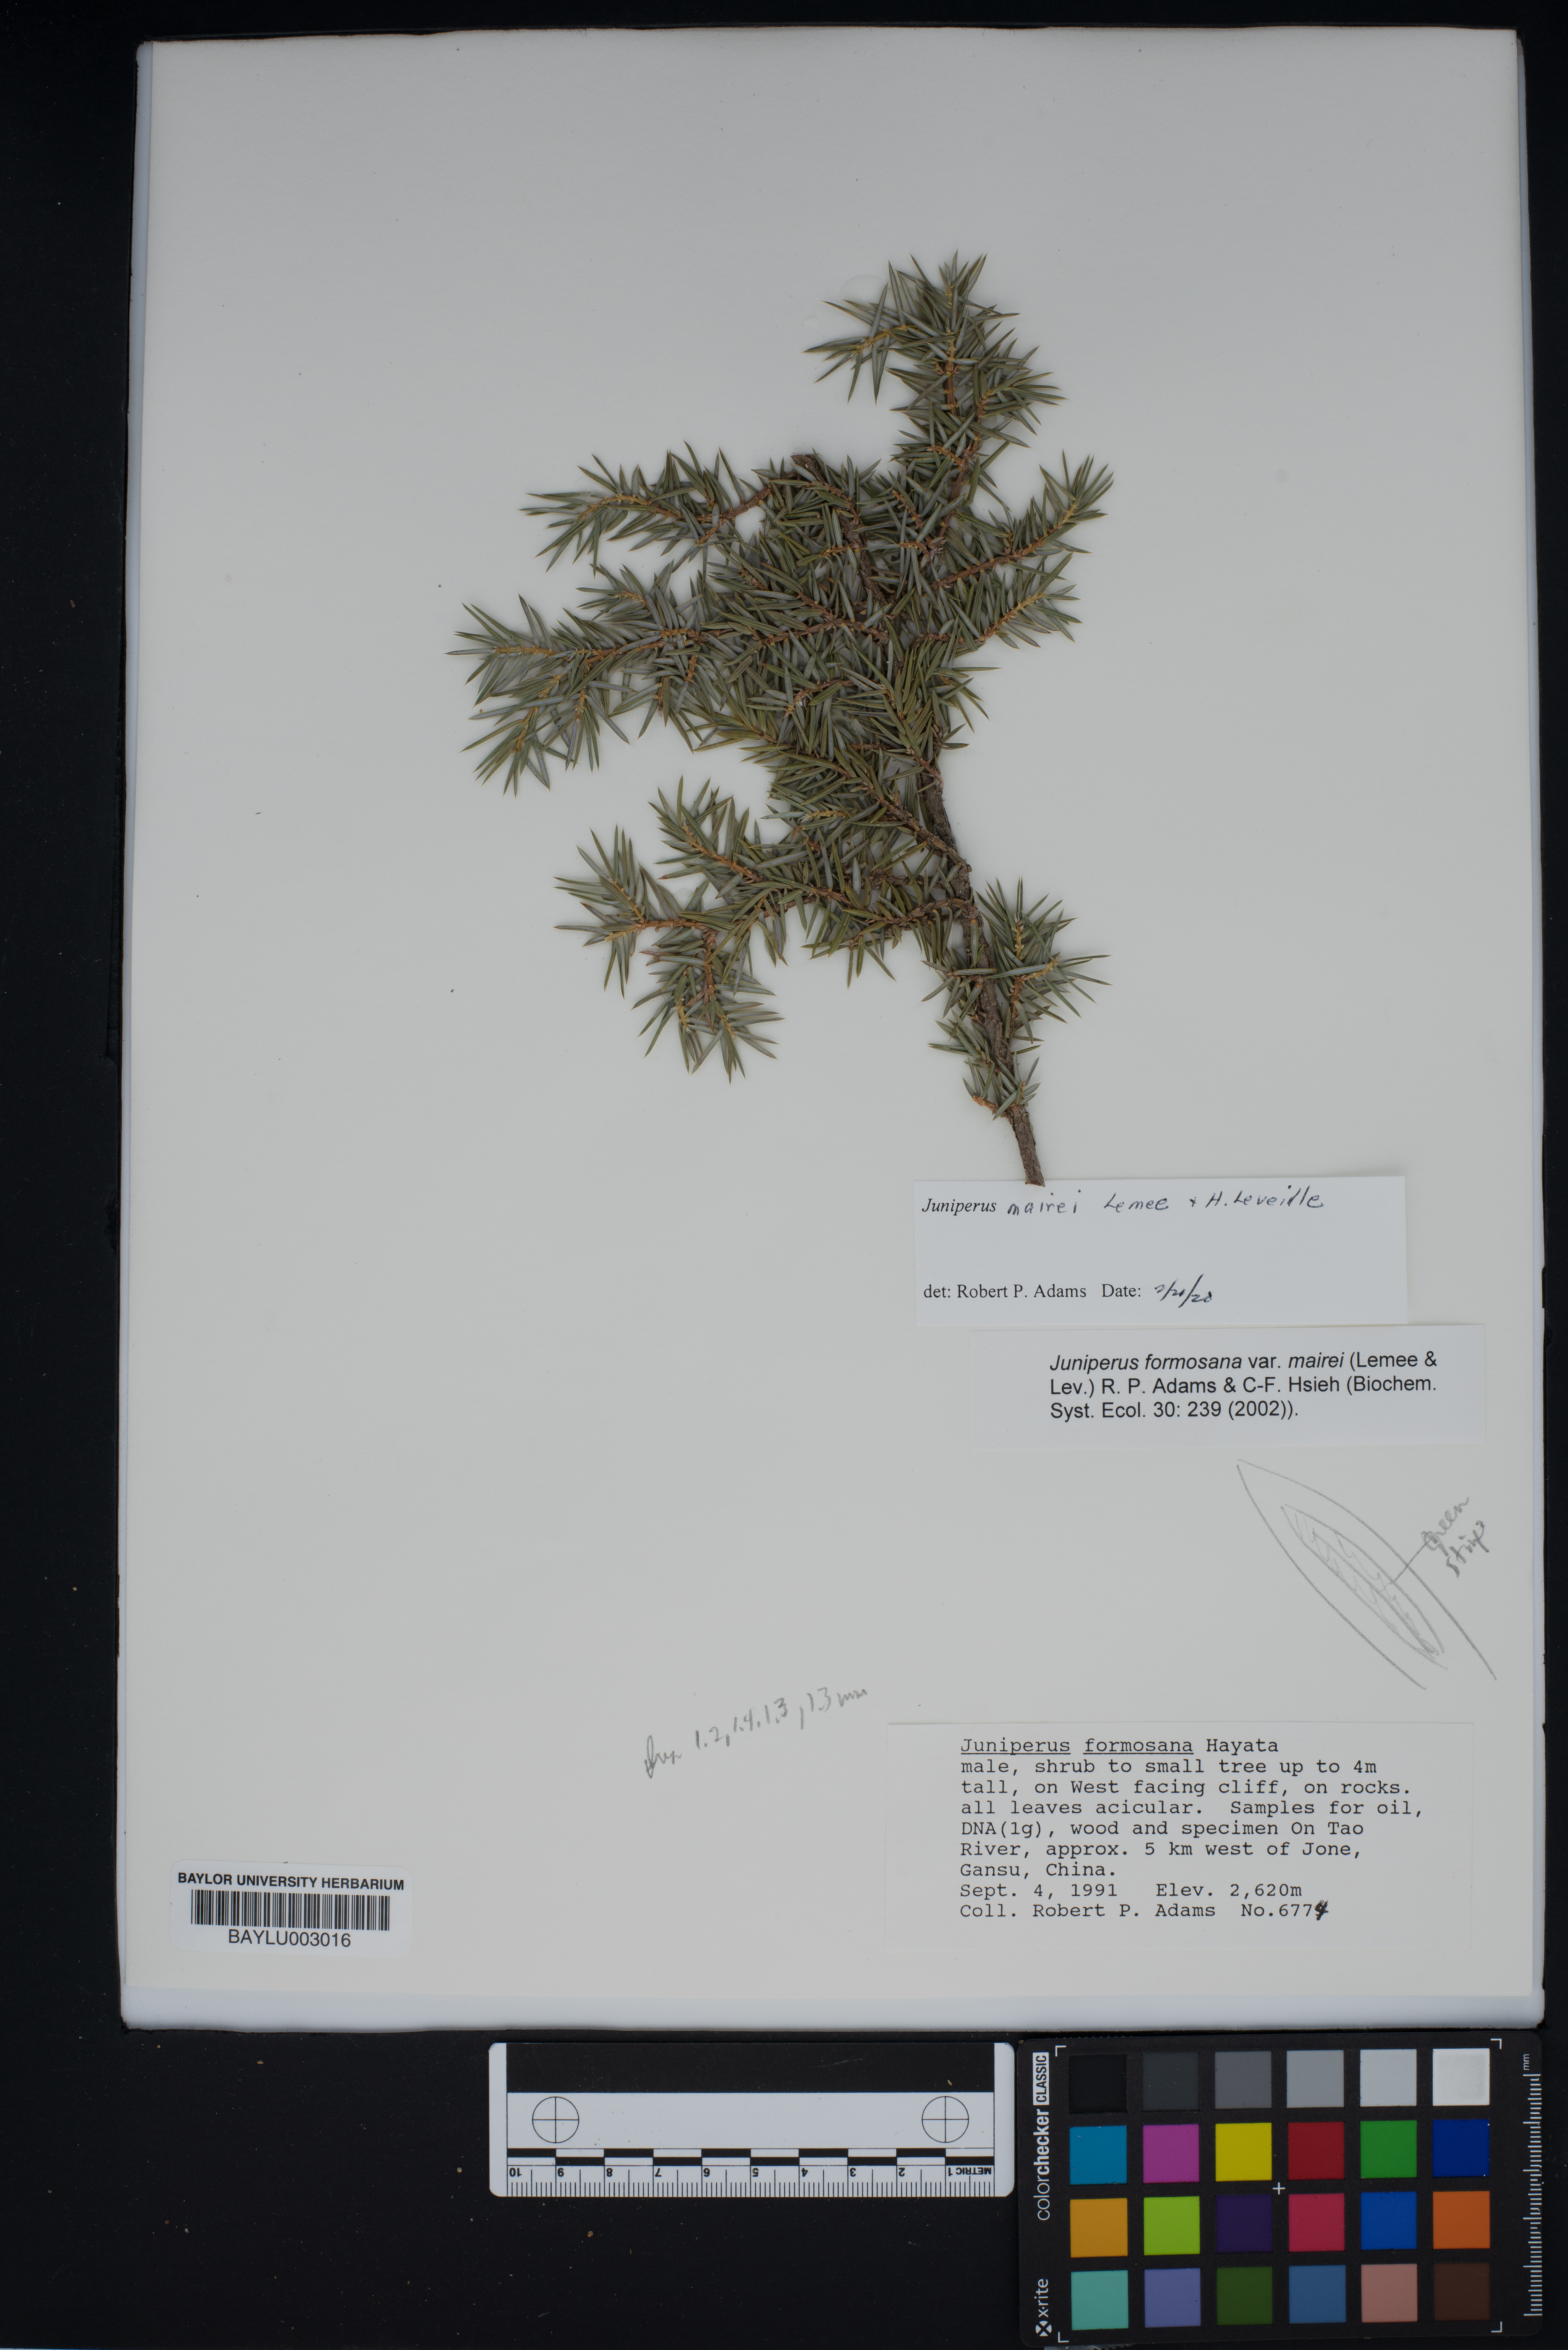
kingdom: Plantae
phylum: Tracheophyta
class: Pinopsida
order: Pinales
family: Cupressaceae
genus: Juniperus
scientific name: Juniperus formosana
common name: Formosan juniper
